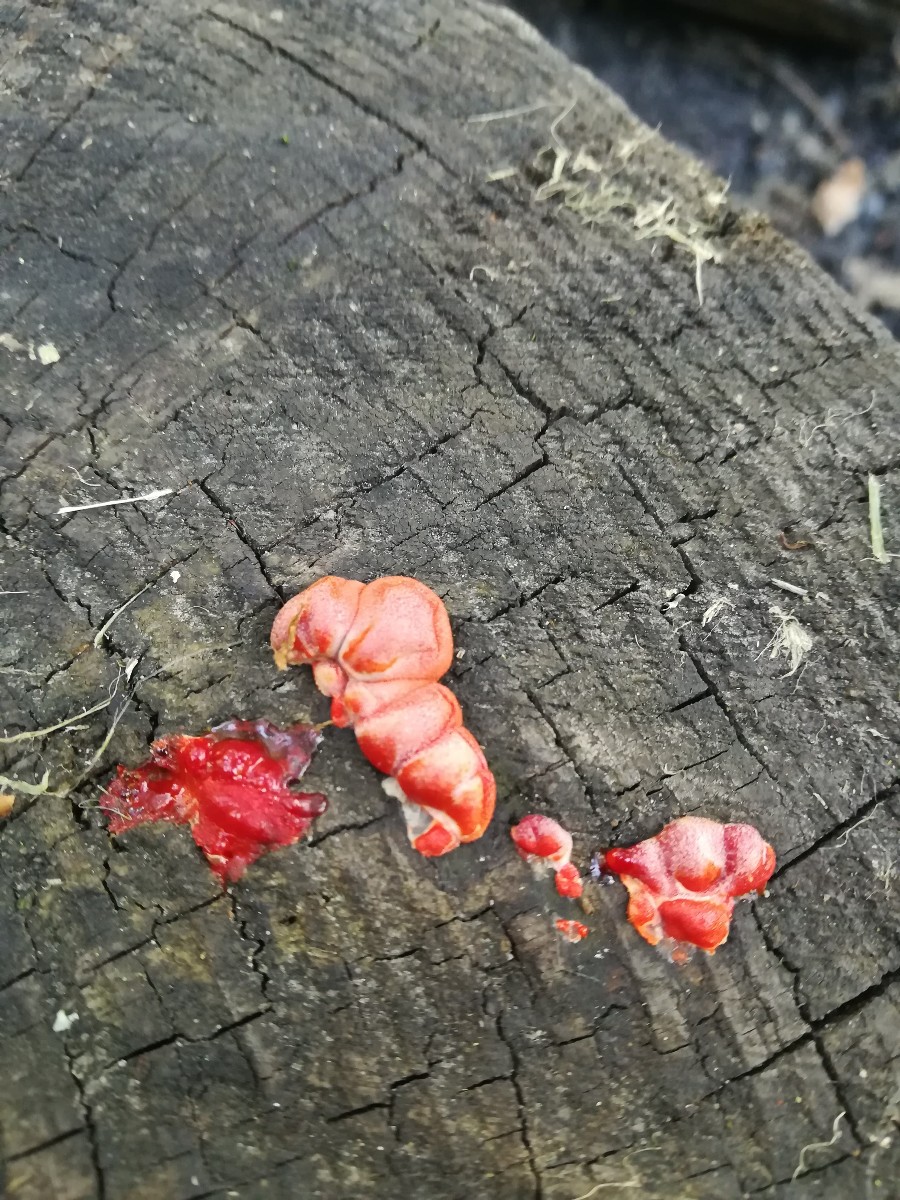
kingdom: Protozoa
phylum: Mycetozoa
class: Myxomycetes
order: Cribrariales
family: Tubiferaceae
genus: Lycogala
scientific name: Lycogala epidendrum
